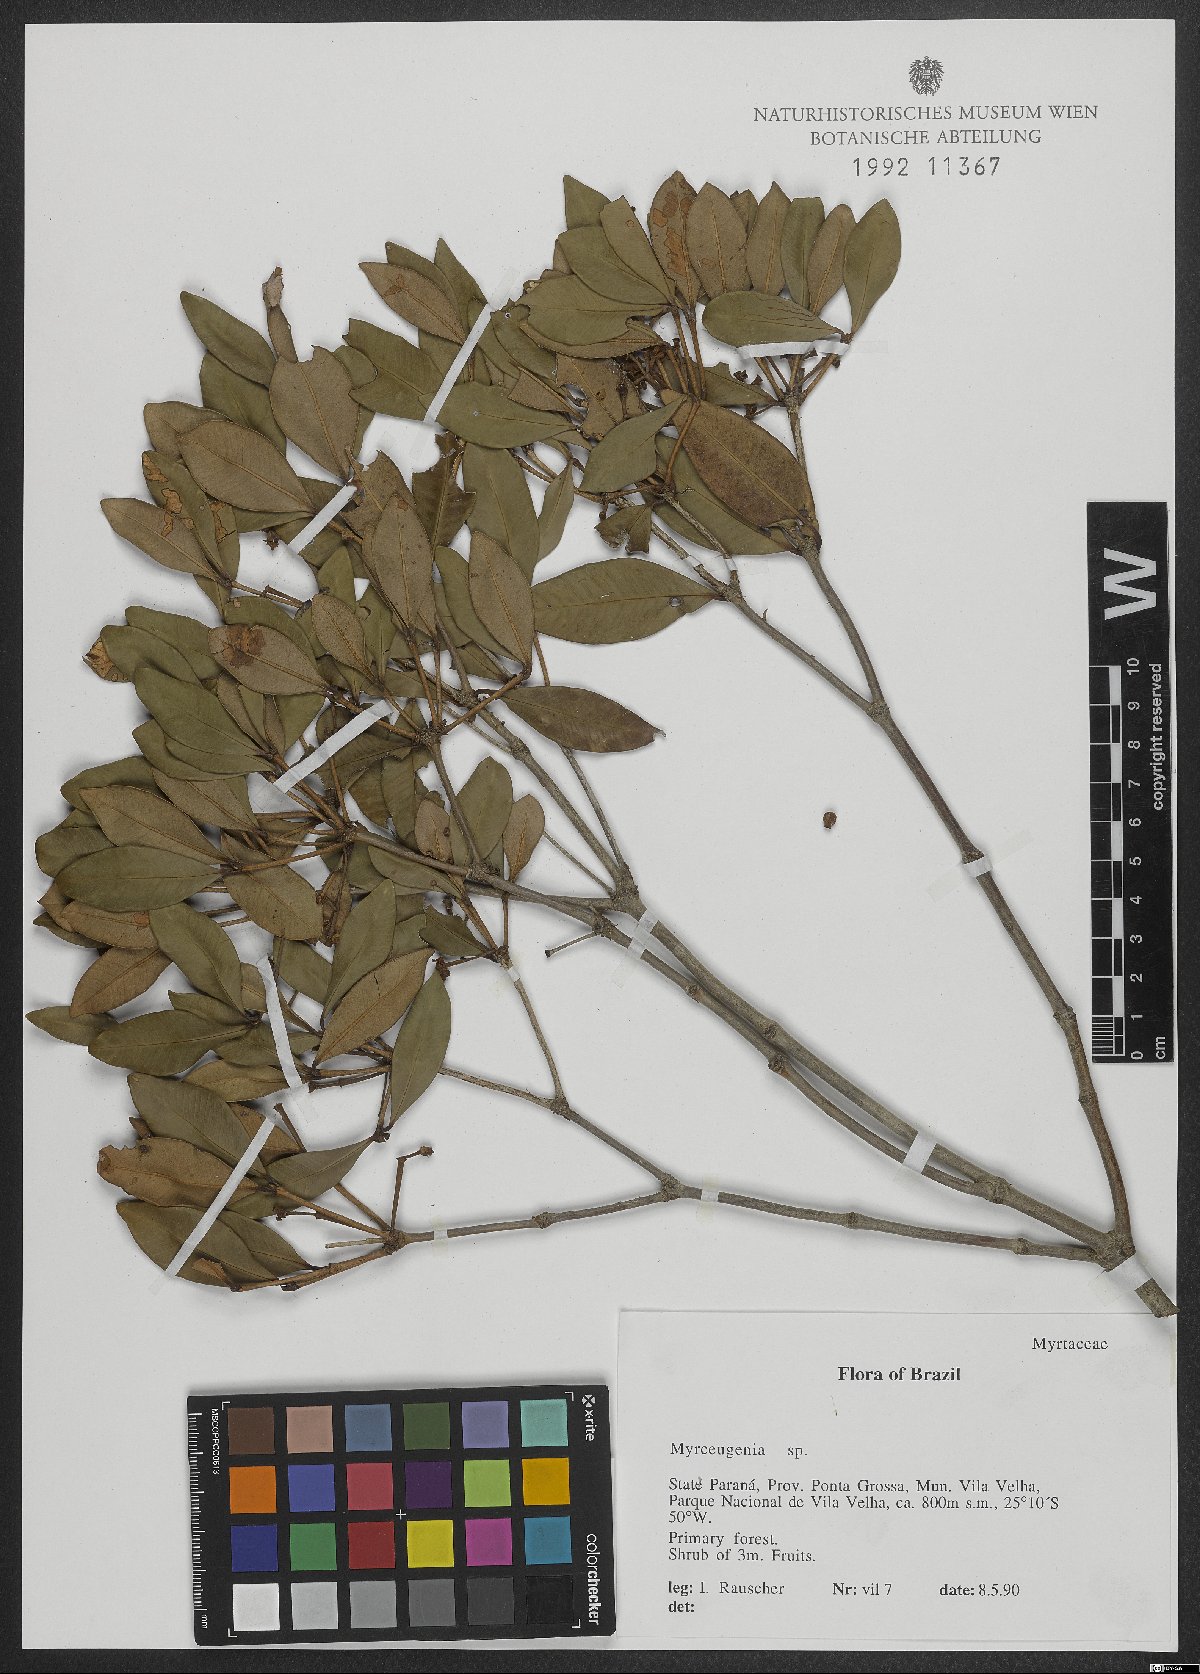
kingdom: Plantae
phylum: Tracheophyta
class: Magnoliopsida
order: Myrtales
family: Myrtaceae
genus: Myrceugenia
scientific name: Myrceugenia
